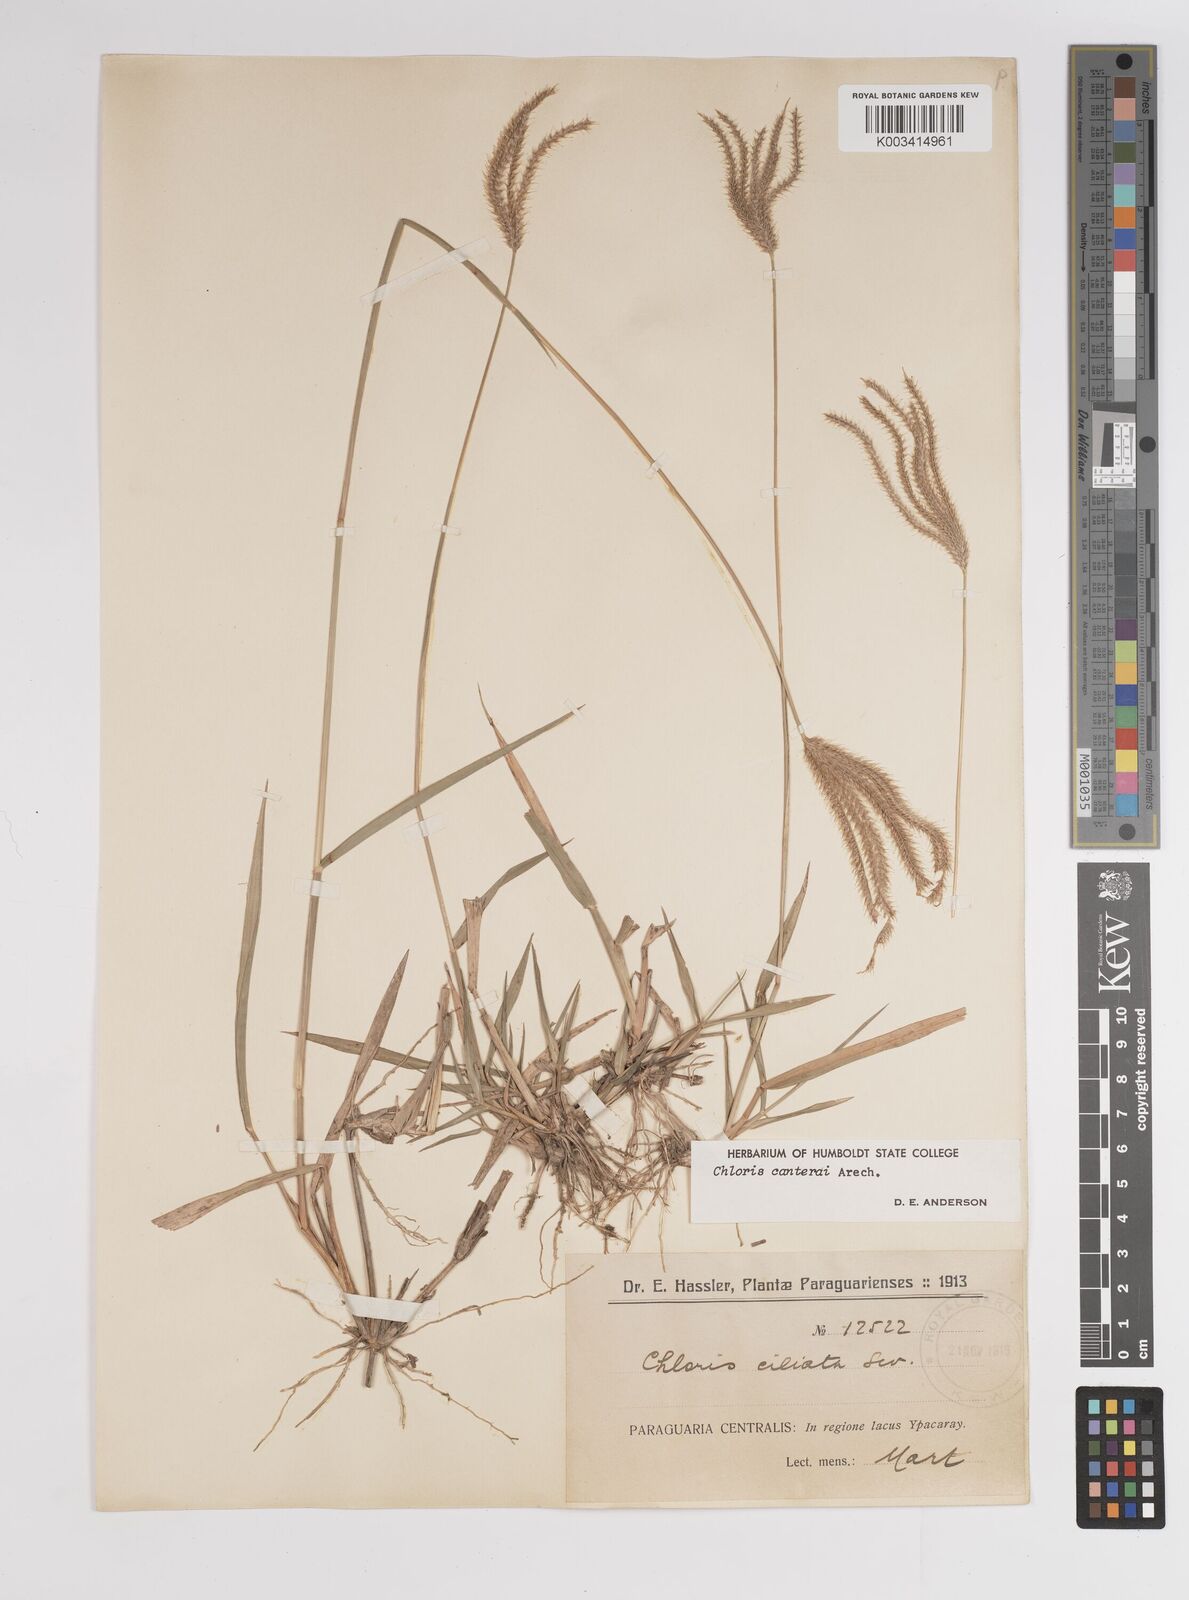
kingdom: Plantae
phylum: Tracheophyta
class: Liliopsida
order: Poales
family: Poaceae
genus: Stapfochloa
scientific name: Stapfochloa canterae
